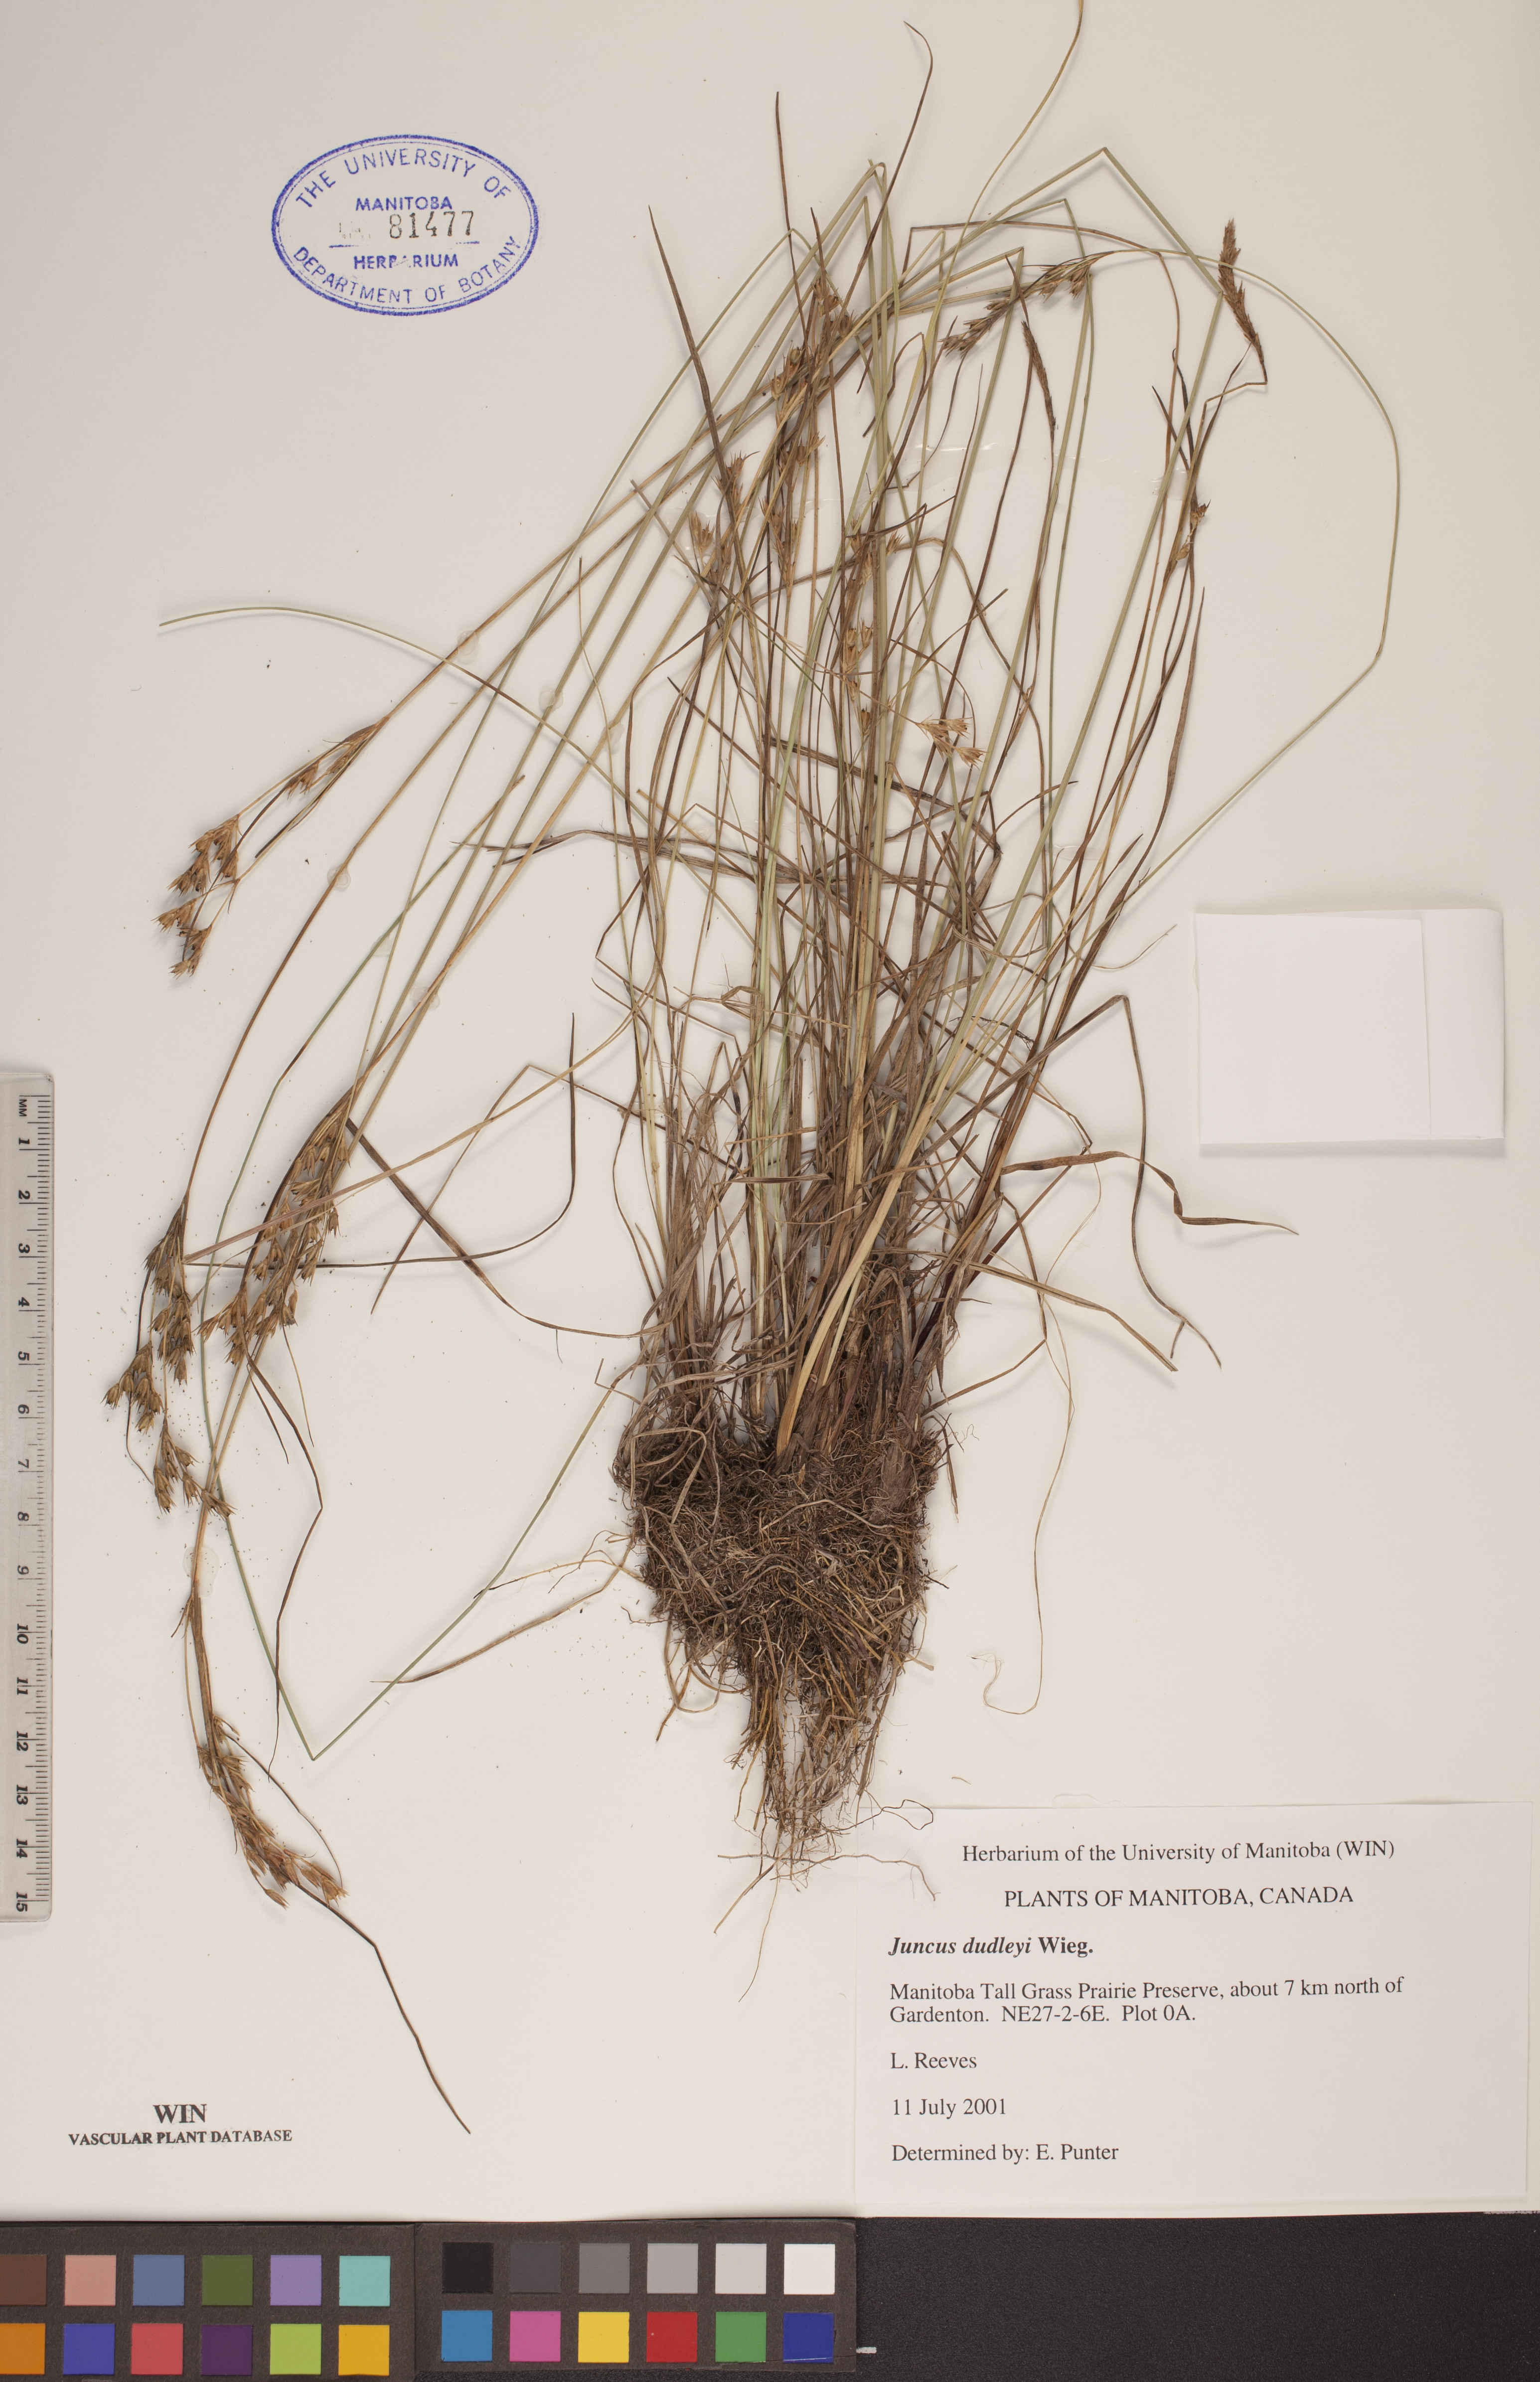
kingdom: Plantae
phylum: Tracheophyta
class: Liliopsida
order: Poales
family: Juncaceae
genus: Juncus
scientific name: Juncus dudleyi
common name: Dudley's rush
